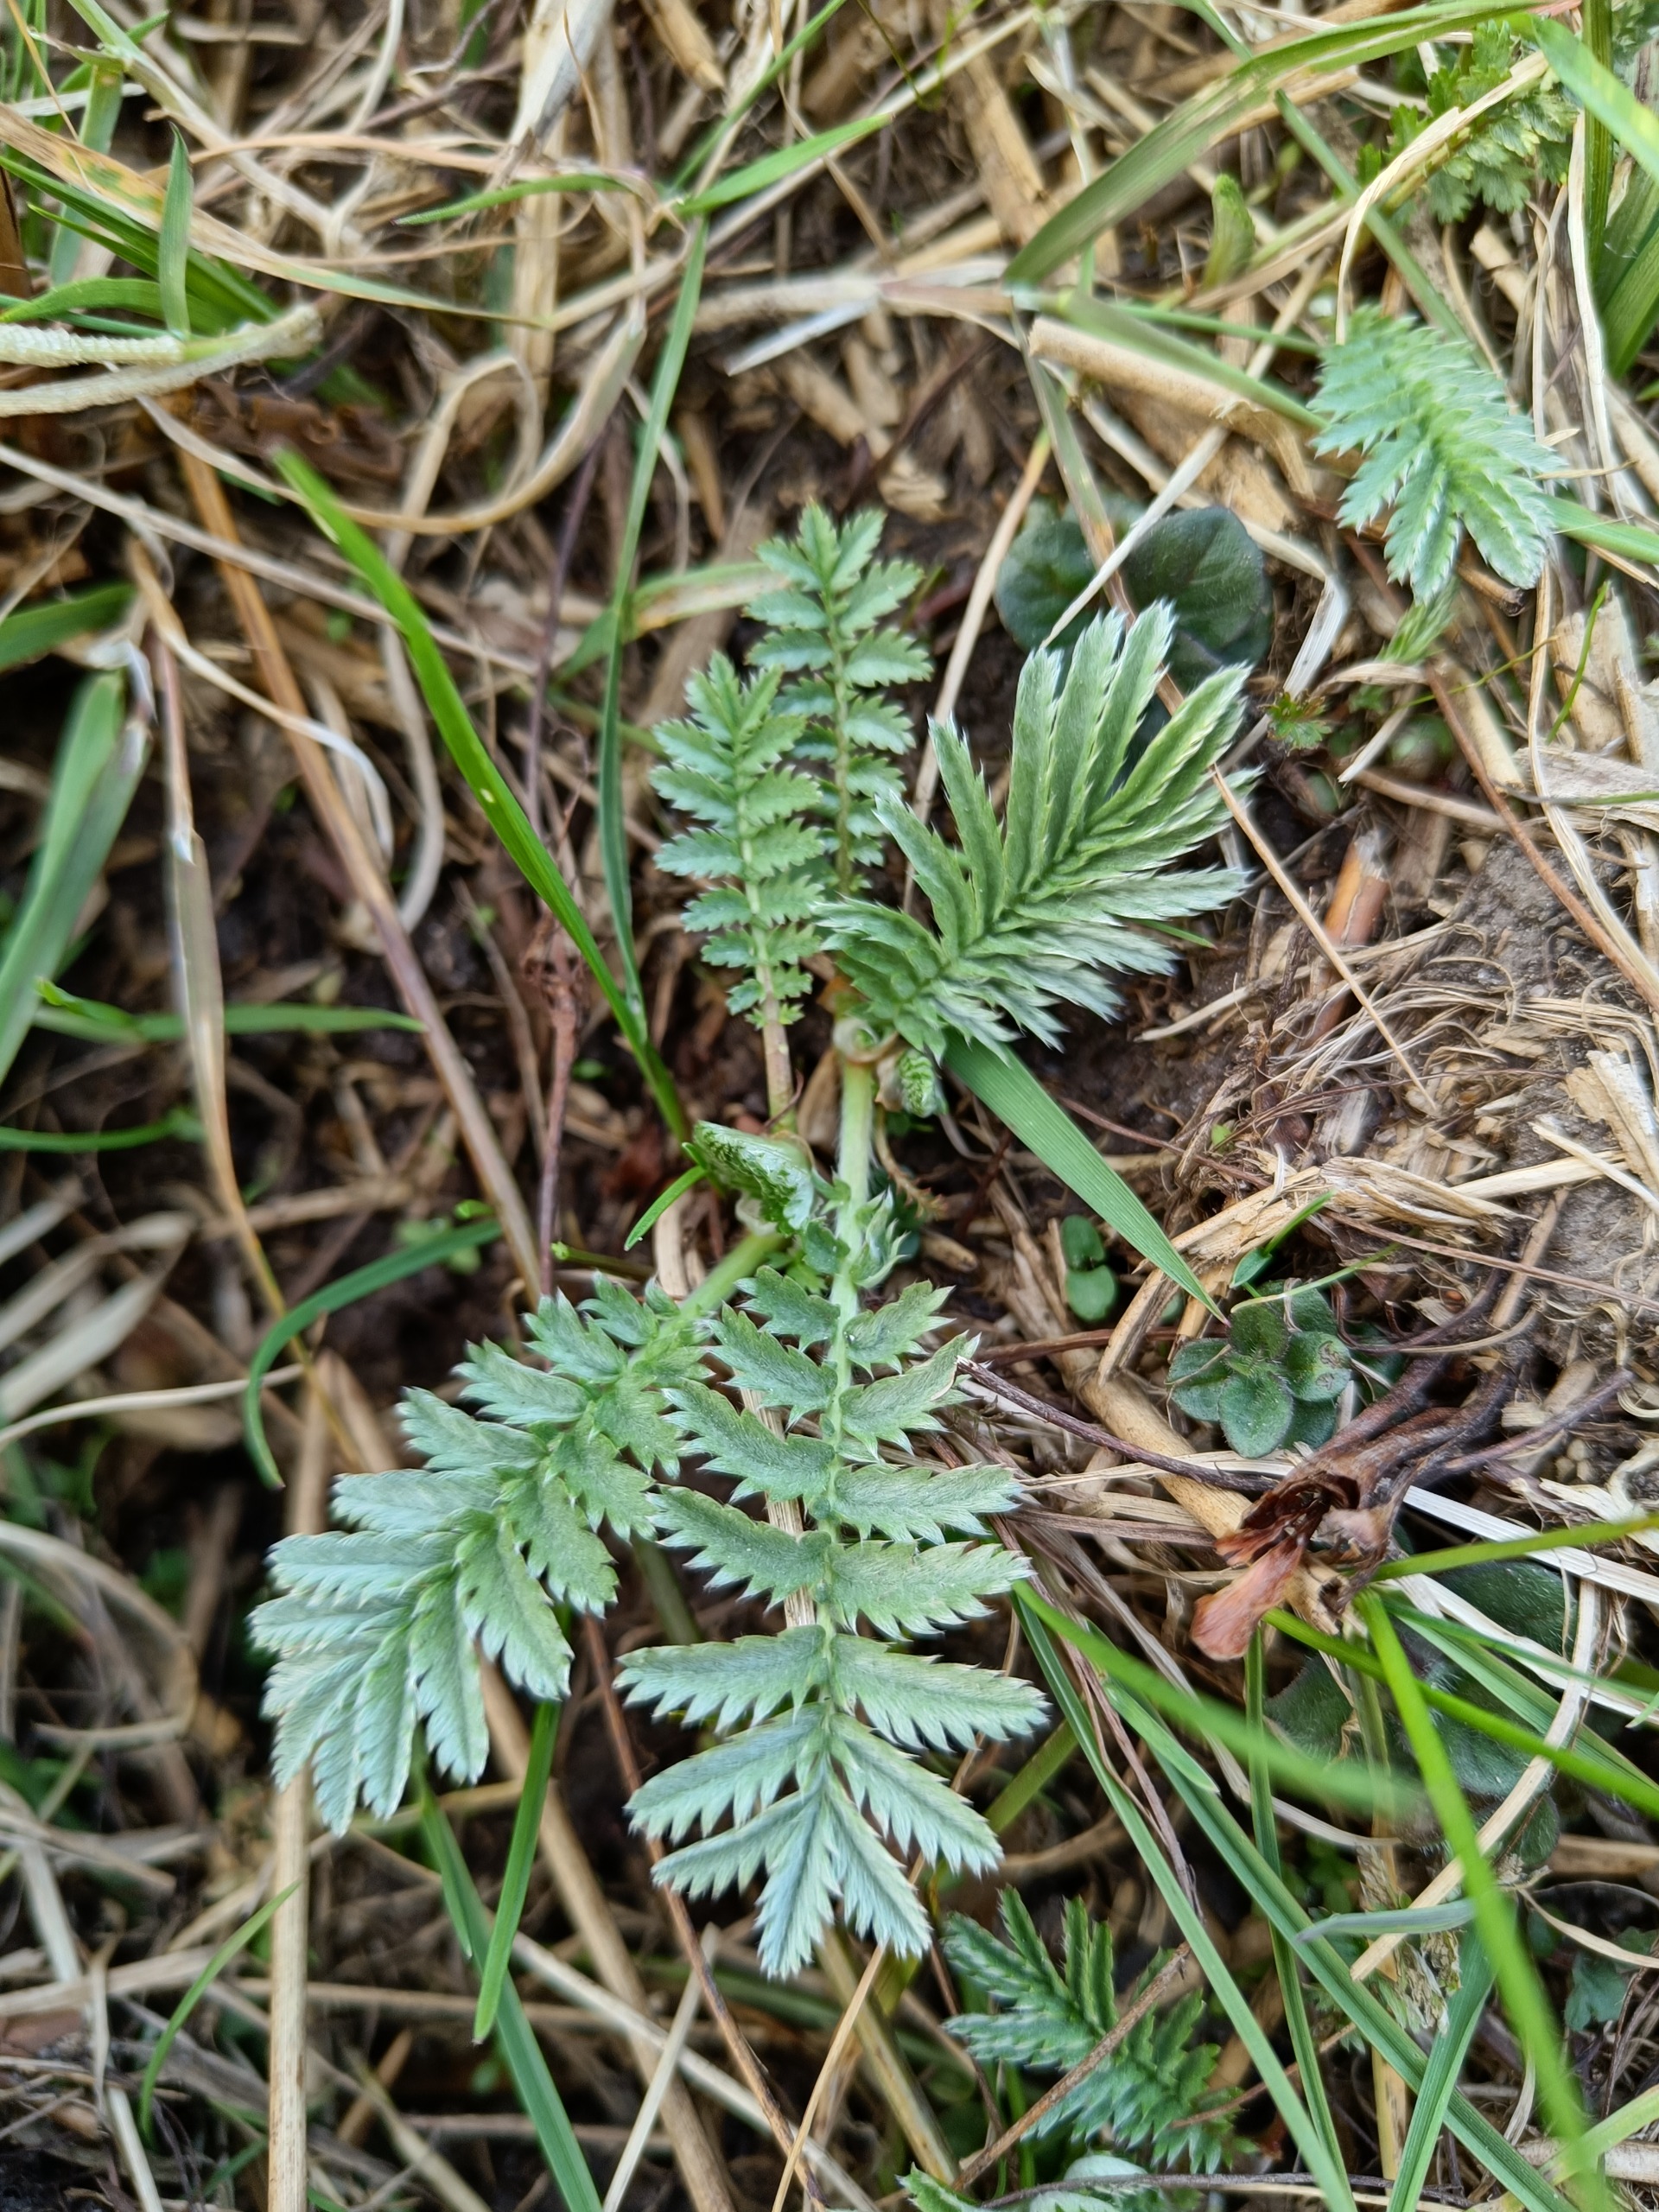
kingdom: Plantae
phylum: Tracheophyta
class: Magnoliopsida
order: Rosales
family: Rosaceae
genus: Argentina
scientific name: Argentina anserina
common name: Gåsepotentil
